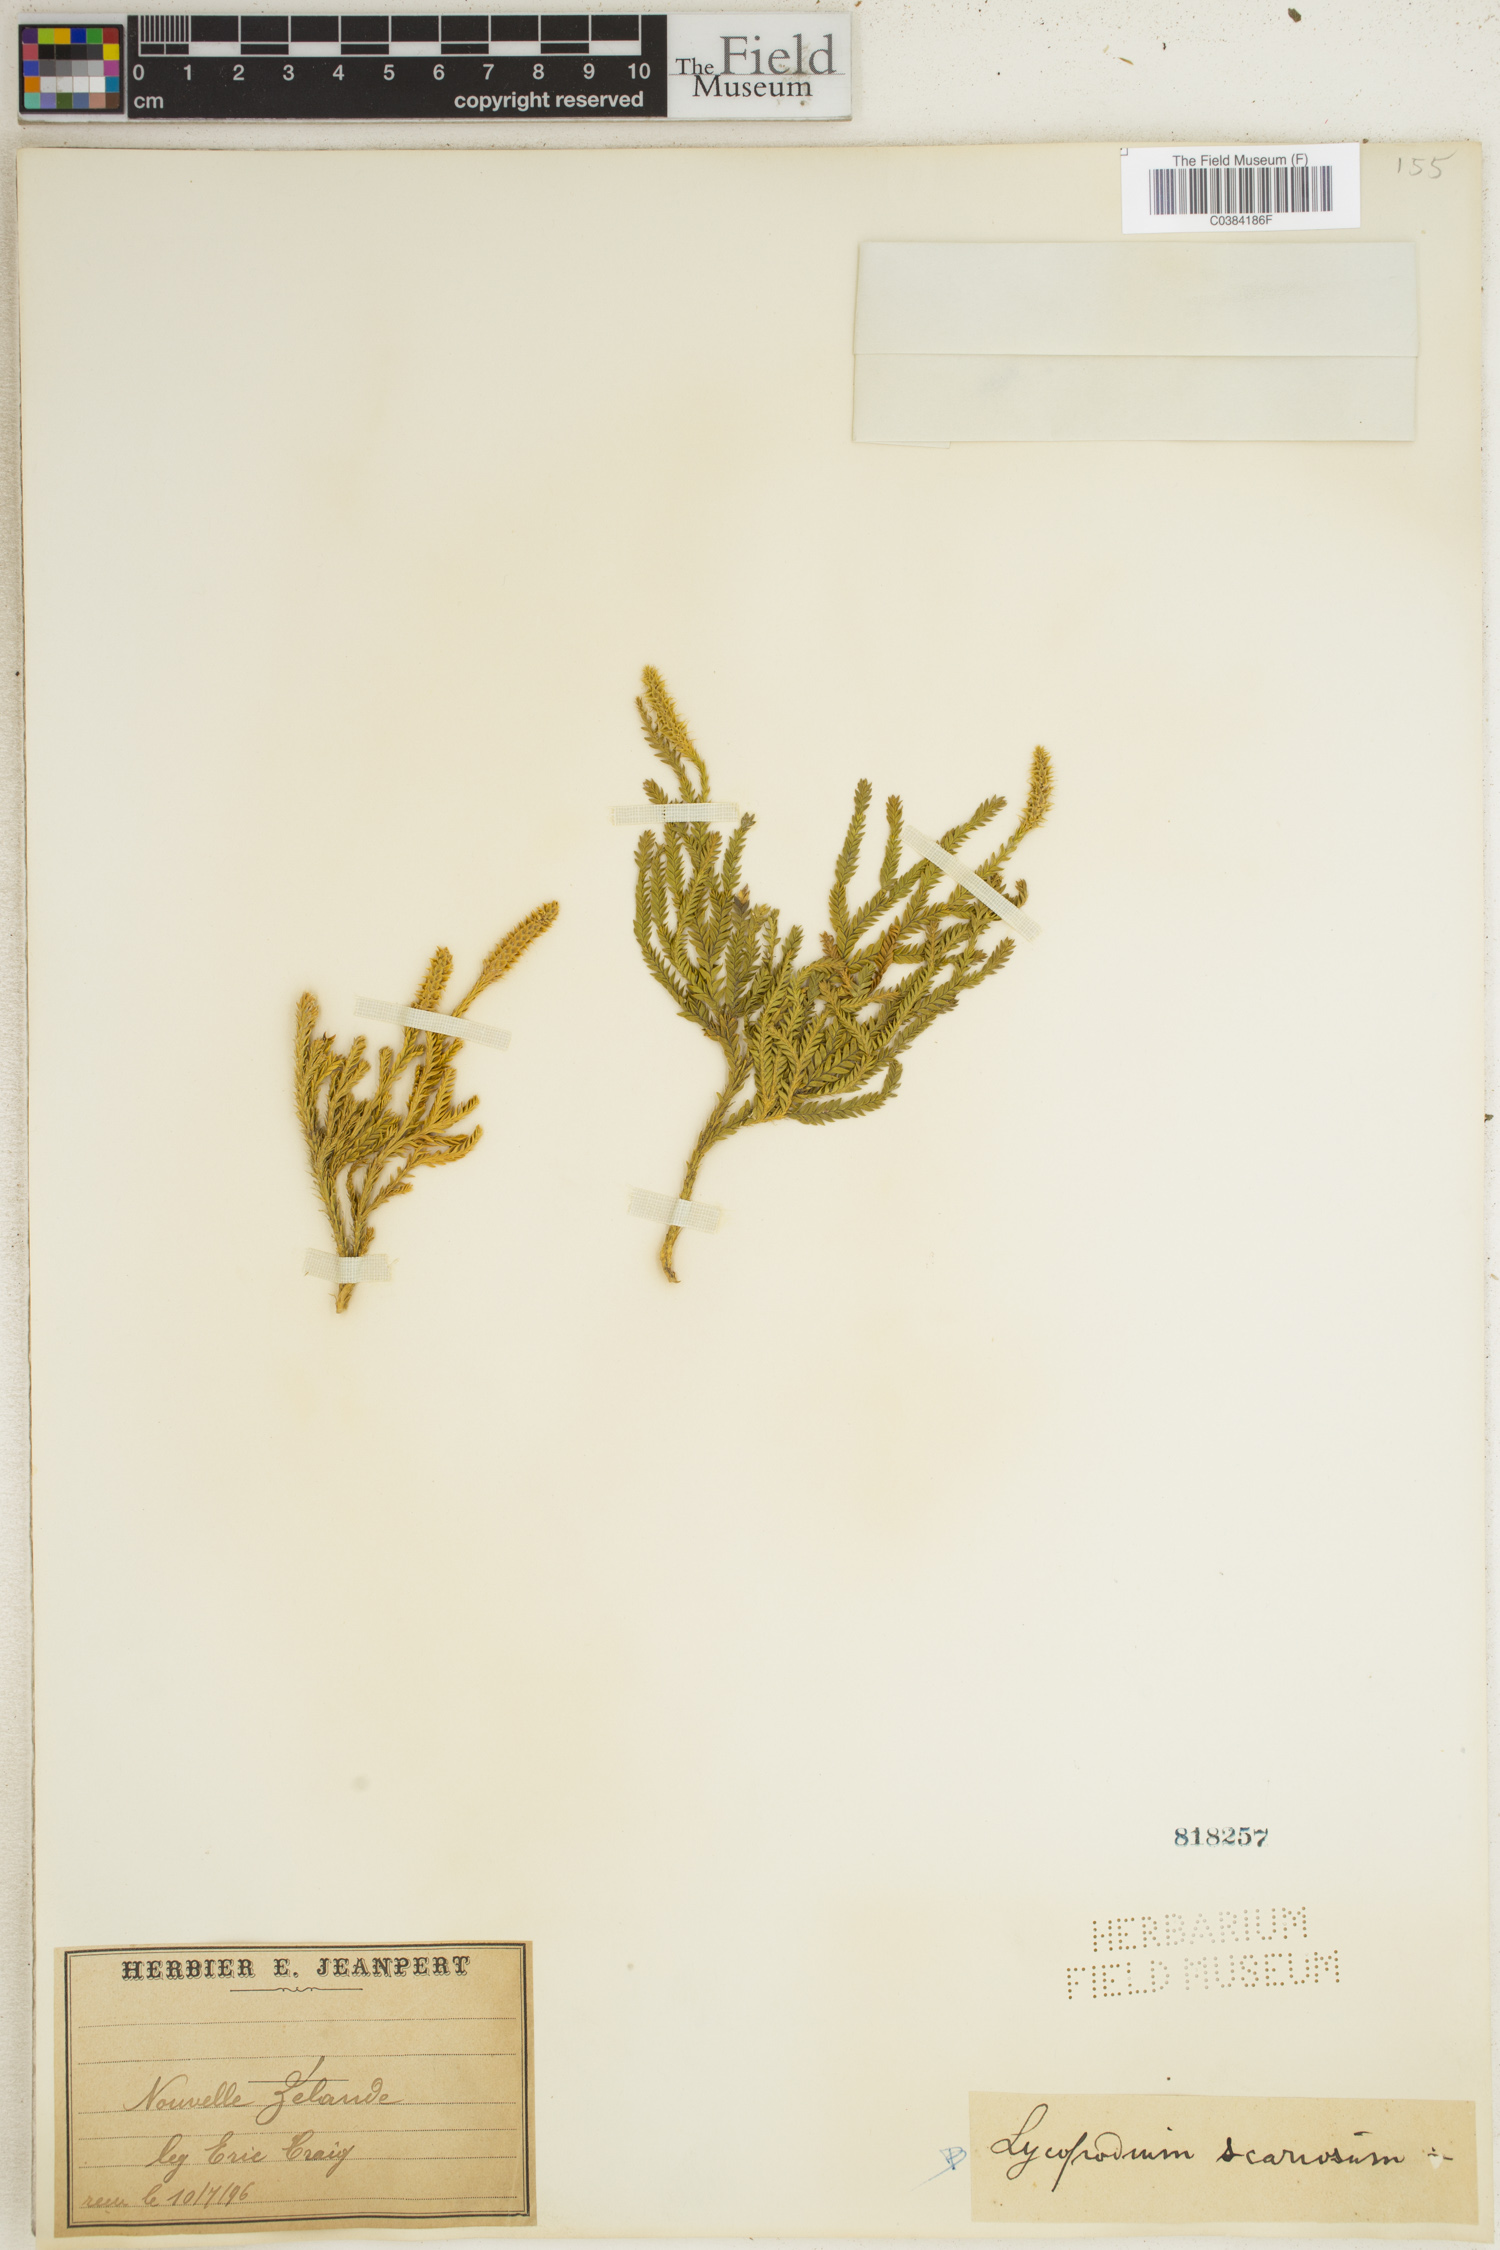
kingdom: Plantae
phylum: Tracheophyta
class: Lycopodiopsida
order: Lycopodiales
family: Lycopodiaceae
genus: Diphasium
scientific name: Diphasium scariosum
